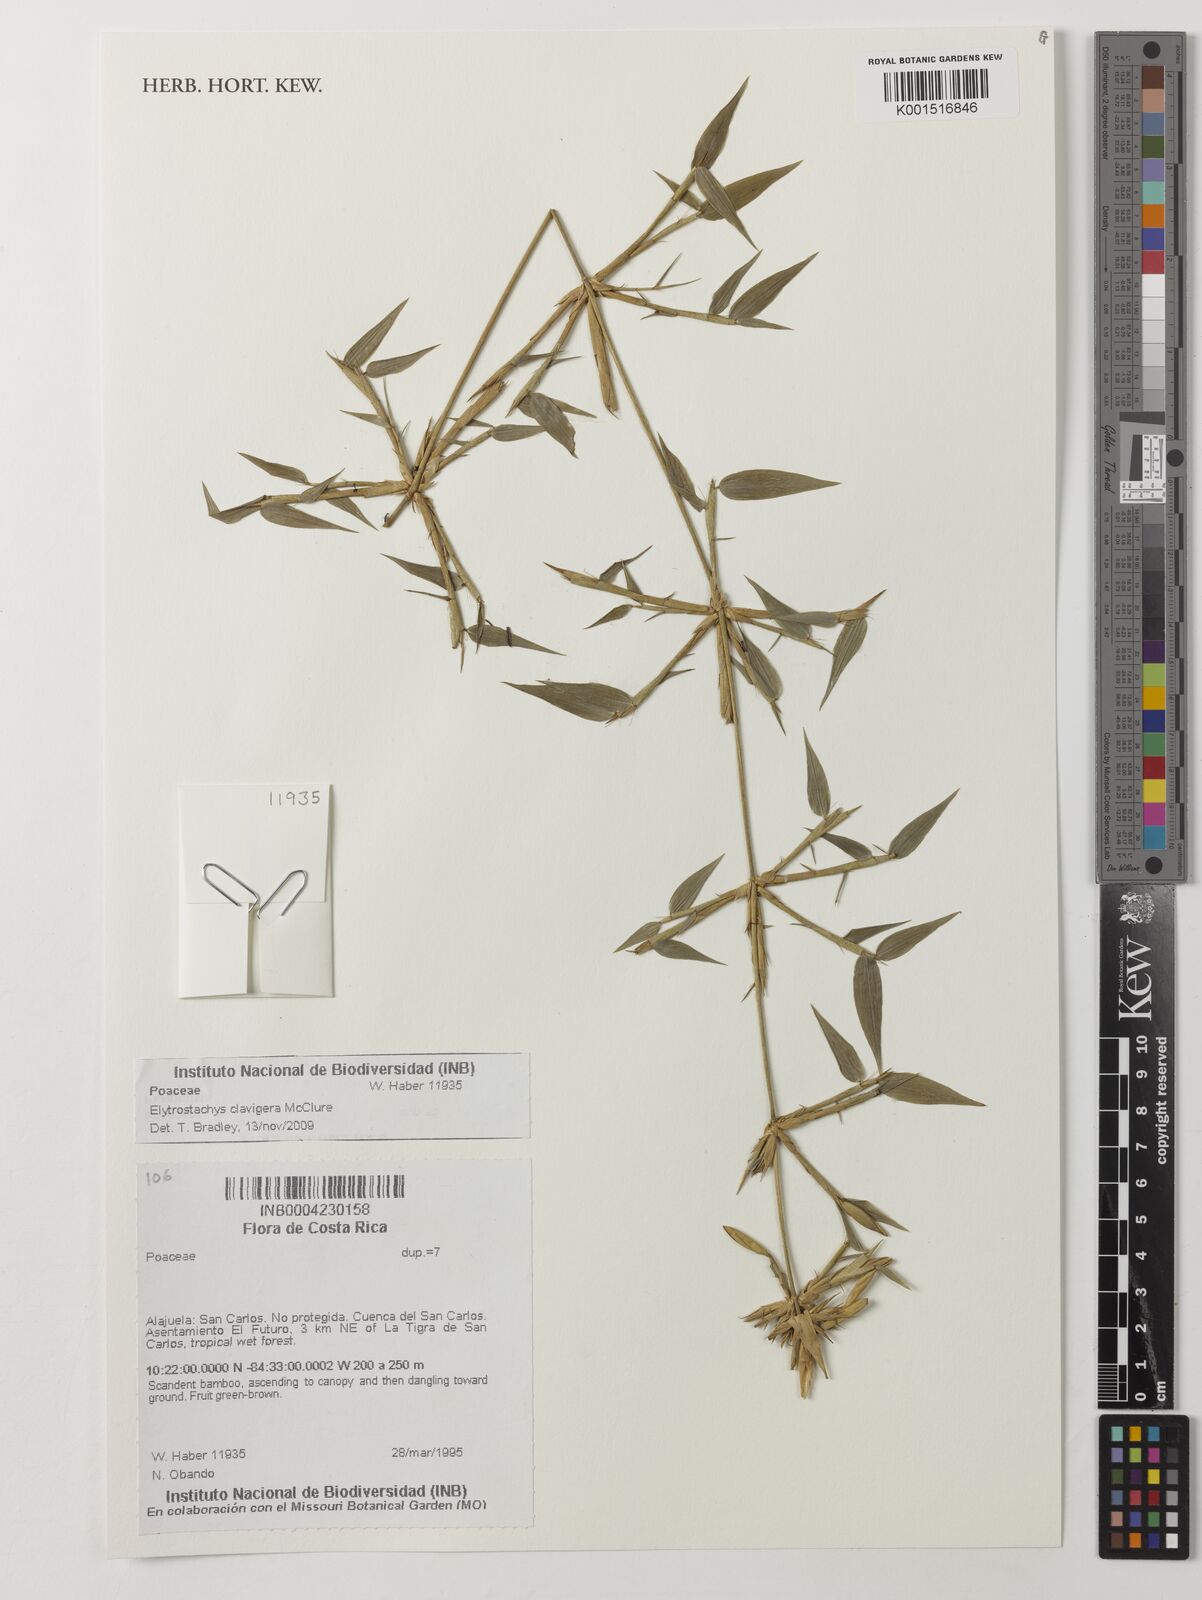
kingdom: Plantae
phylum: Tracheophyta
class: Liliopsida
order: Poales
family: Poaceae
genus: Elytrostachys
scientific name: Elytrostachys clavigera
